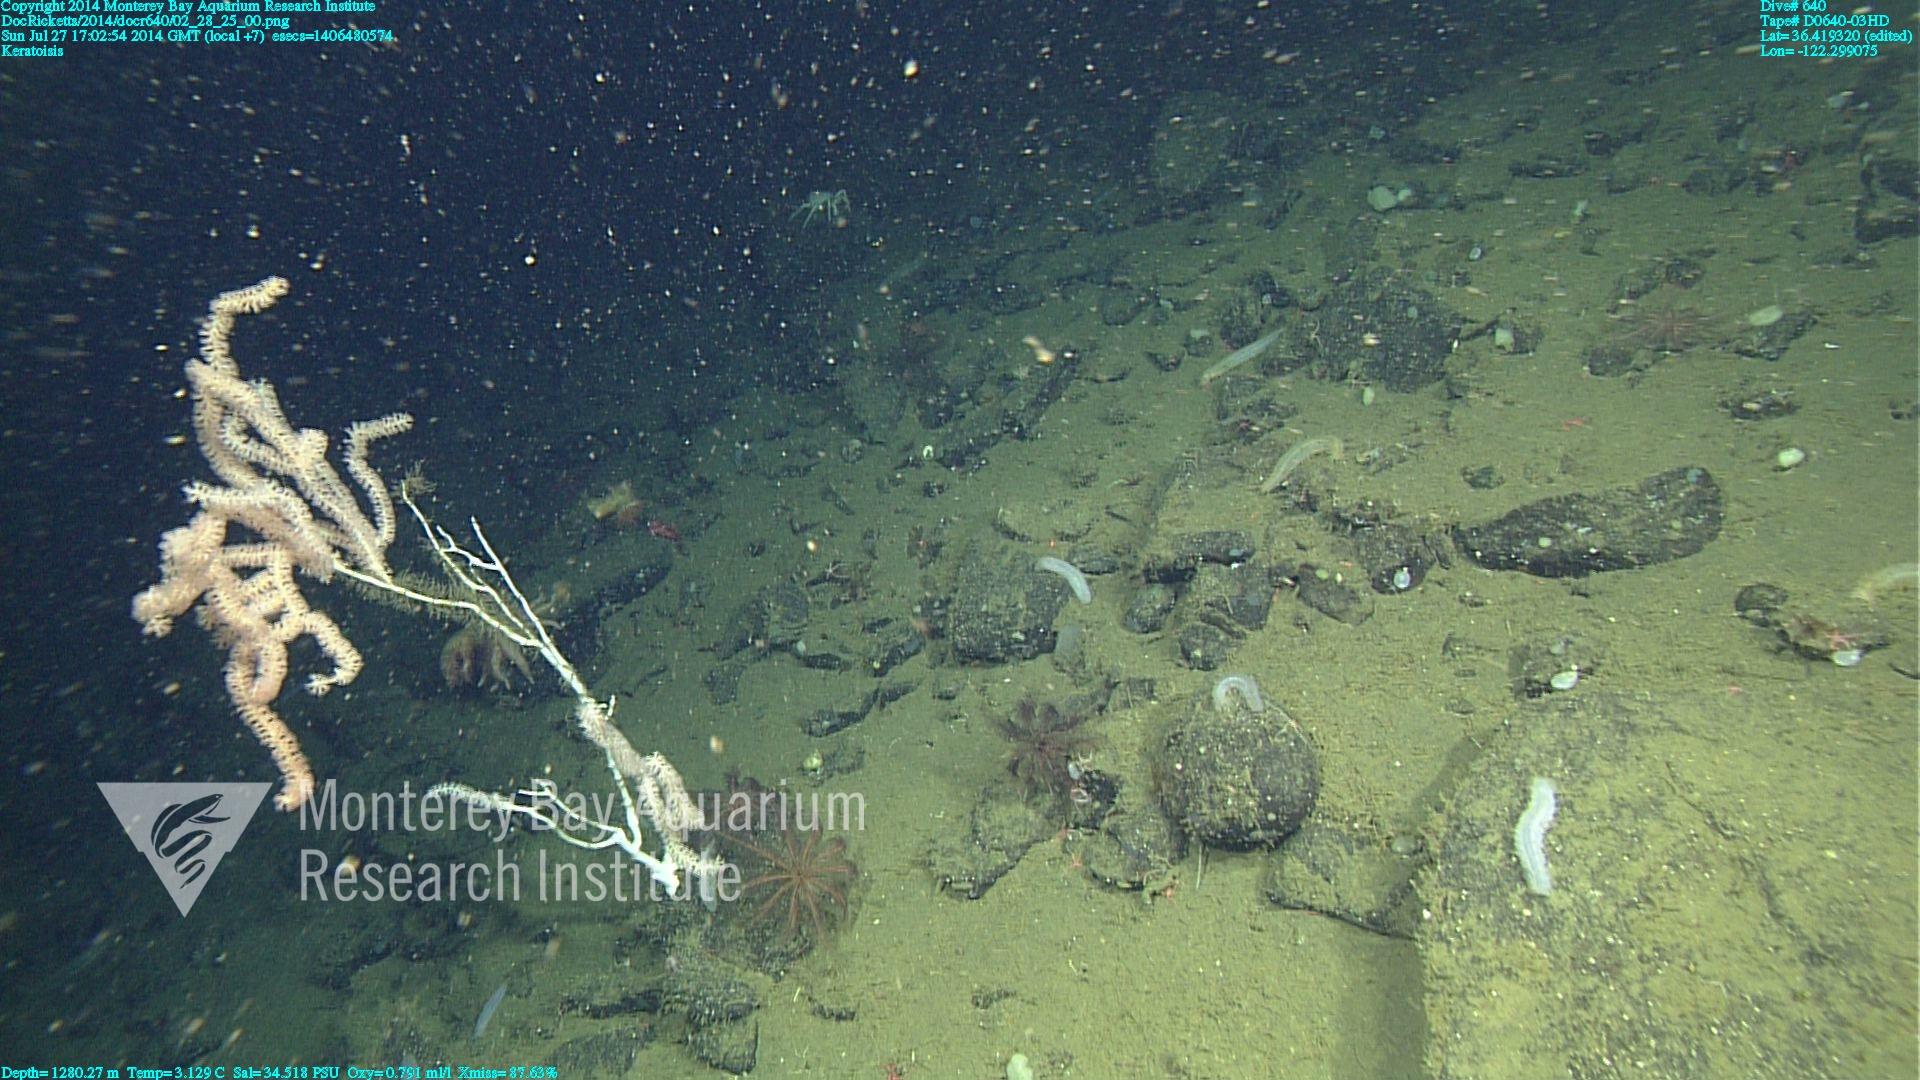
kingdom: Animalia
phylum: Cnidaria
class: Anthozoa
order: Scleralcyonacea
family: Keratoisididae
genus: Keratoisis
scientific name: Keratoisis
